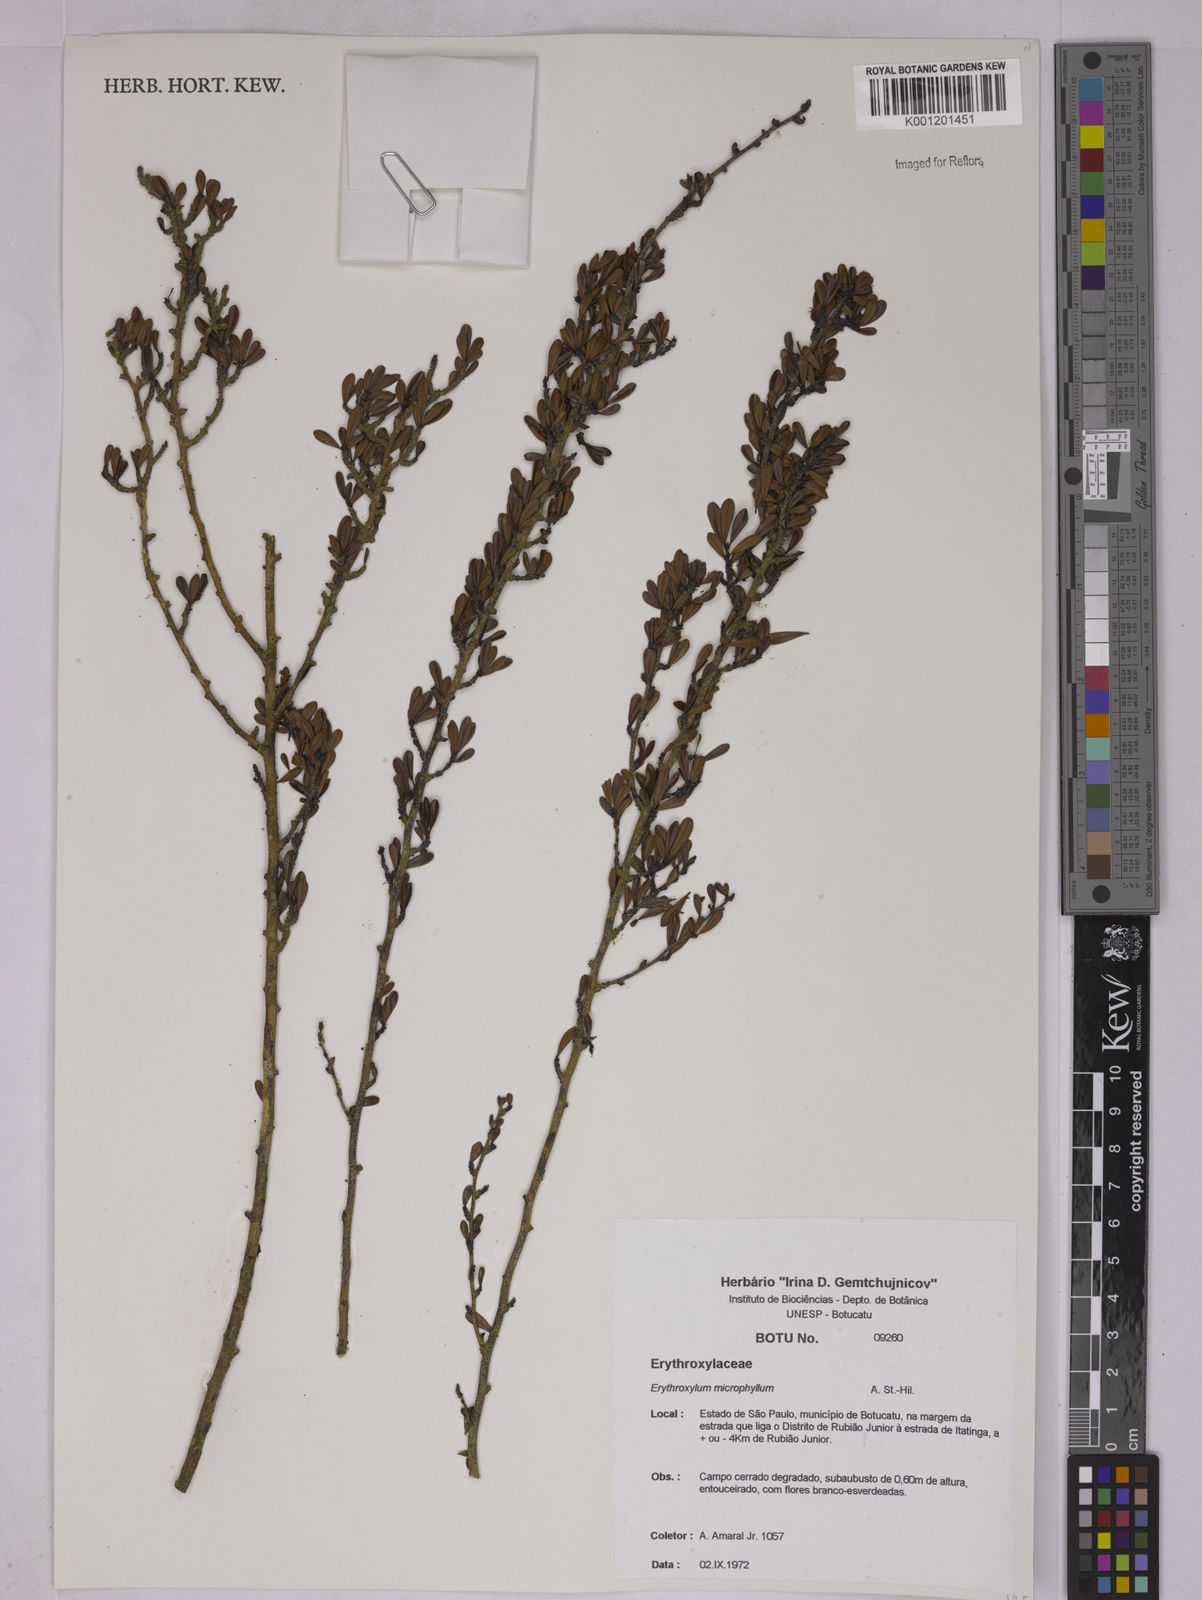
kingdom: Plantae
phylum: Tracheophyta
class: Magnoliopsida
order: Malpighiales
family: Erythroxylaceae
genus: Erythroxylum
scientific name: Erythroxylum microphyllum
